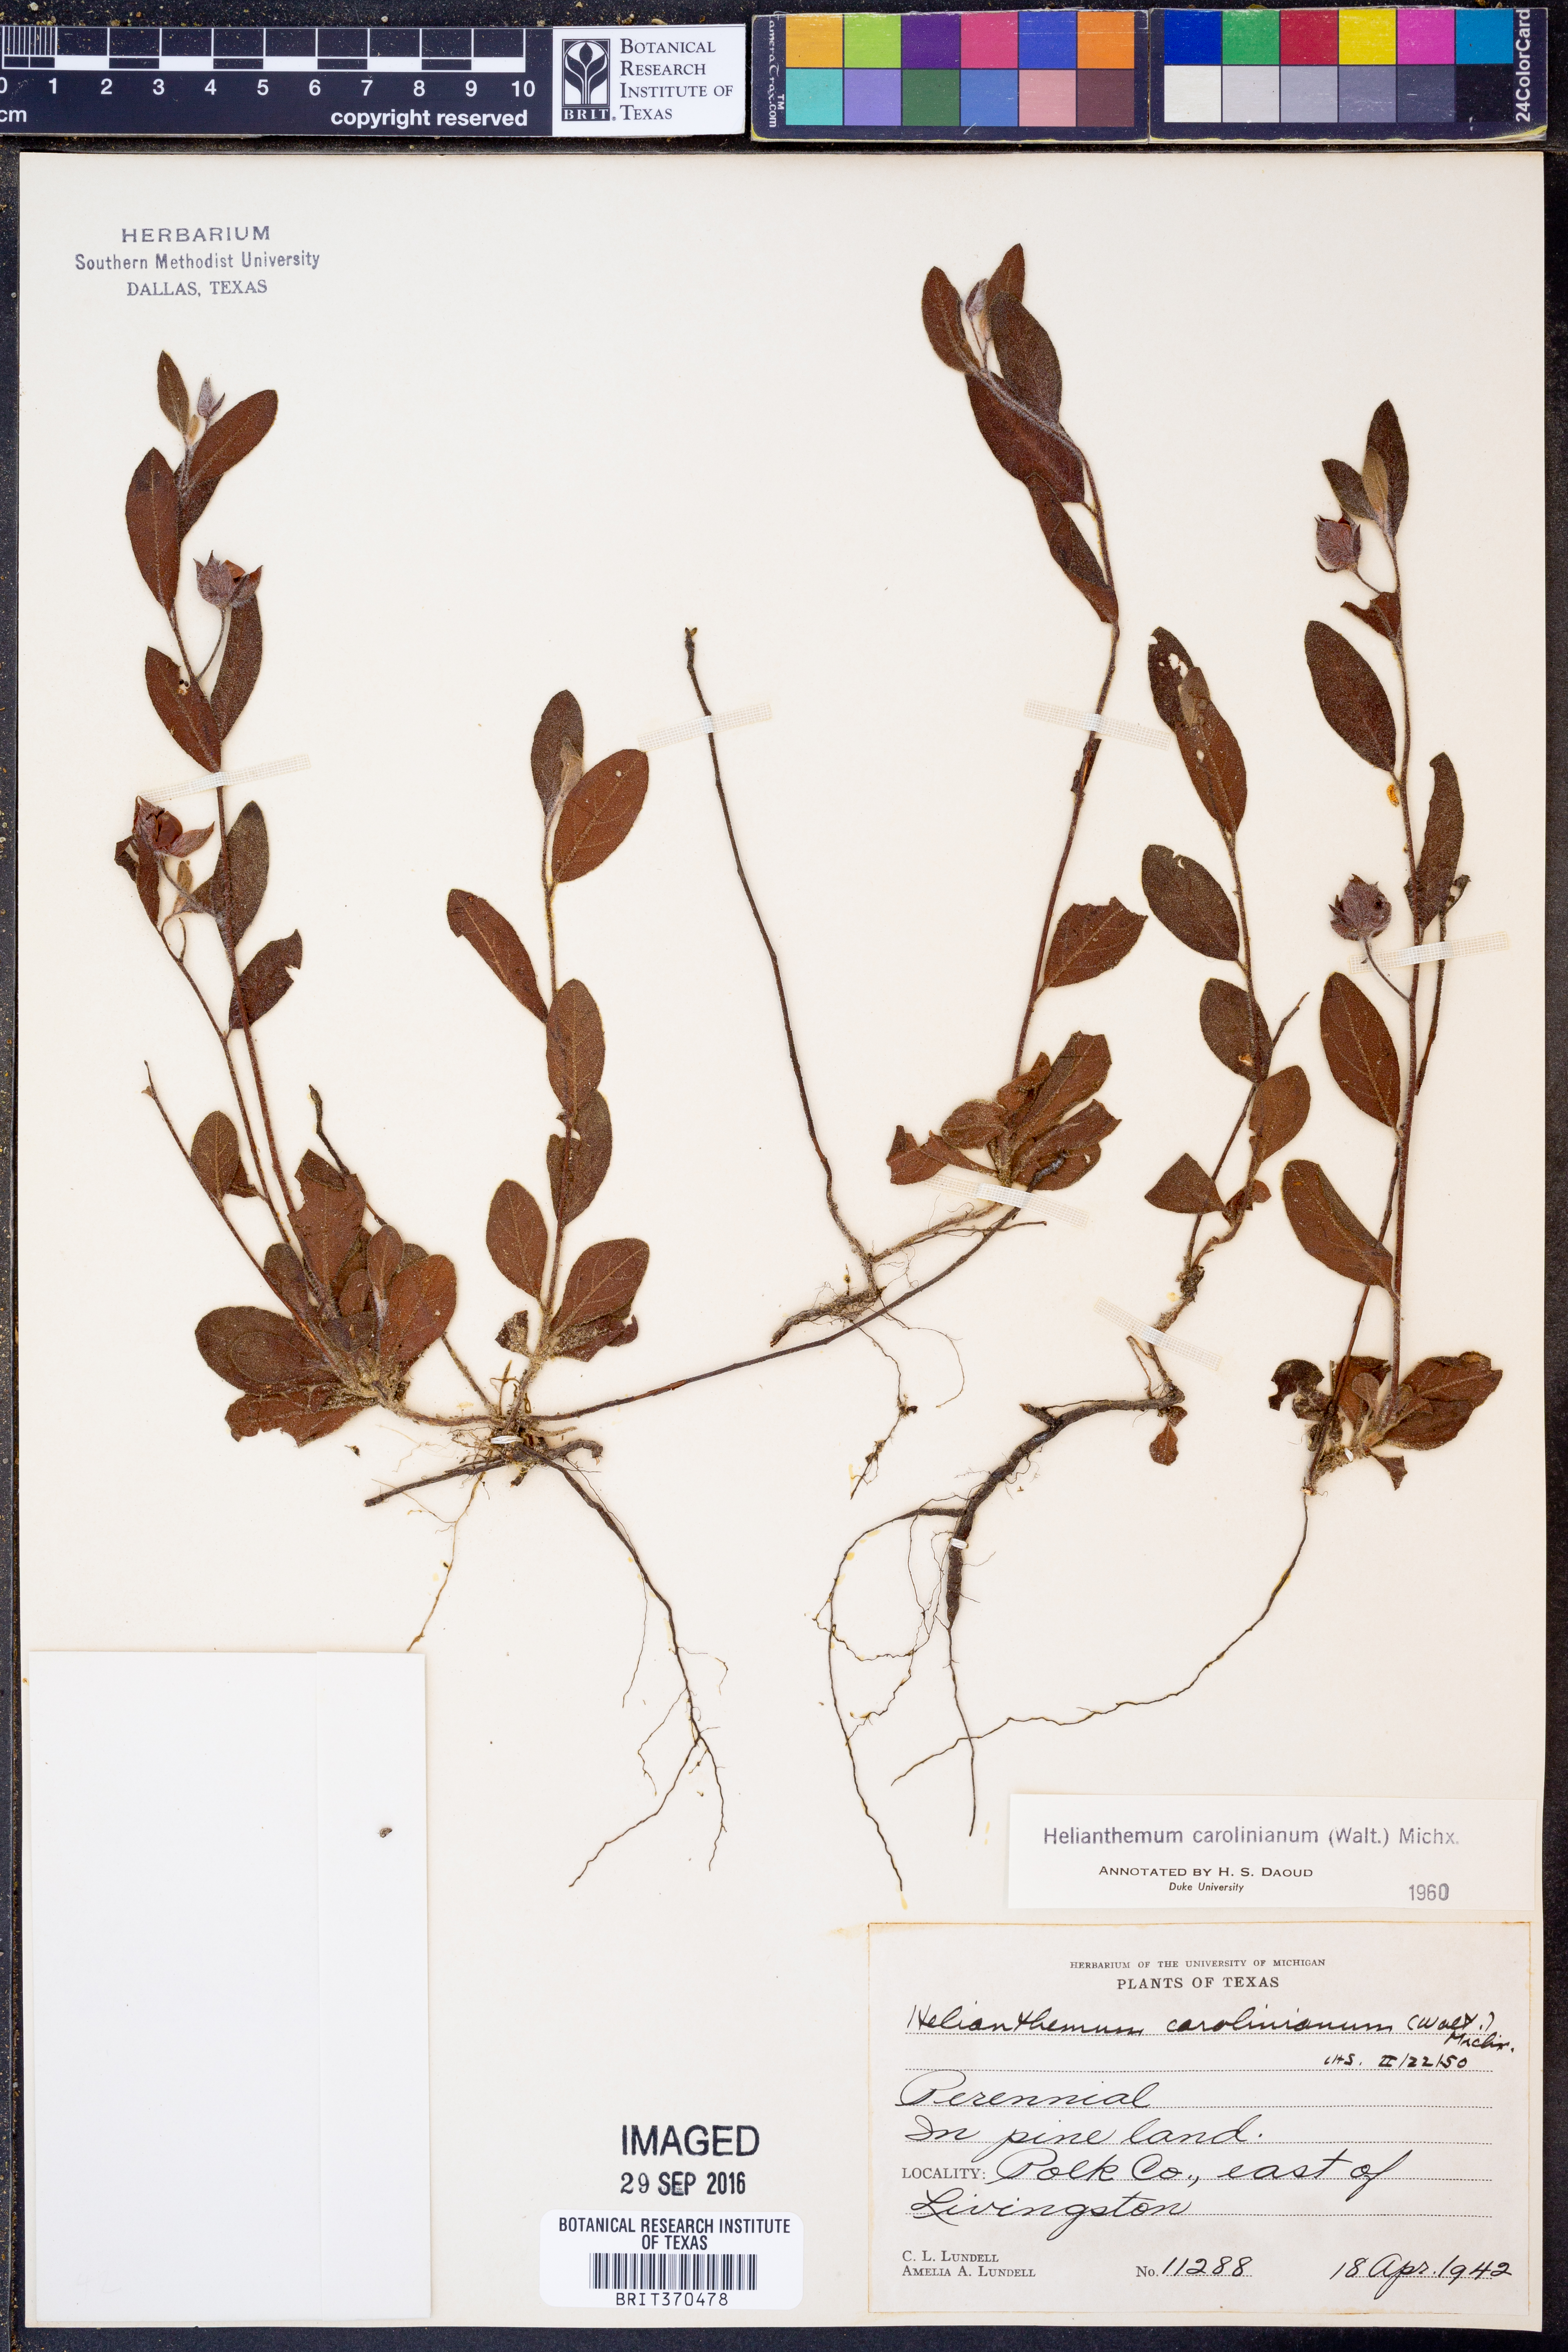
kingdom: Plantae
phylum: Tracheophyta
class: Magnoliopsida
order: Malvales
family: Cistaceae
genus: Crocanthemum
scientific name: Crocanthemum carolinianum
